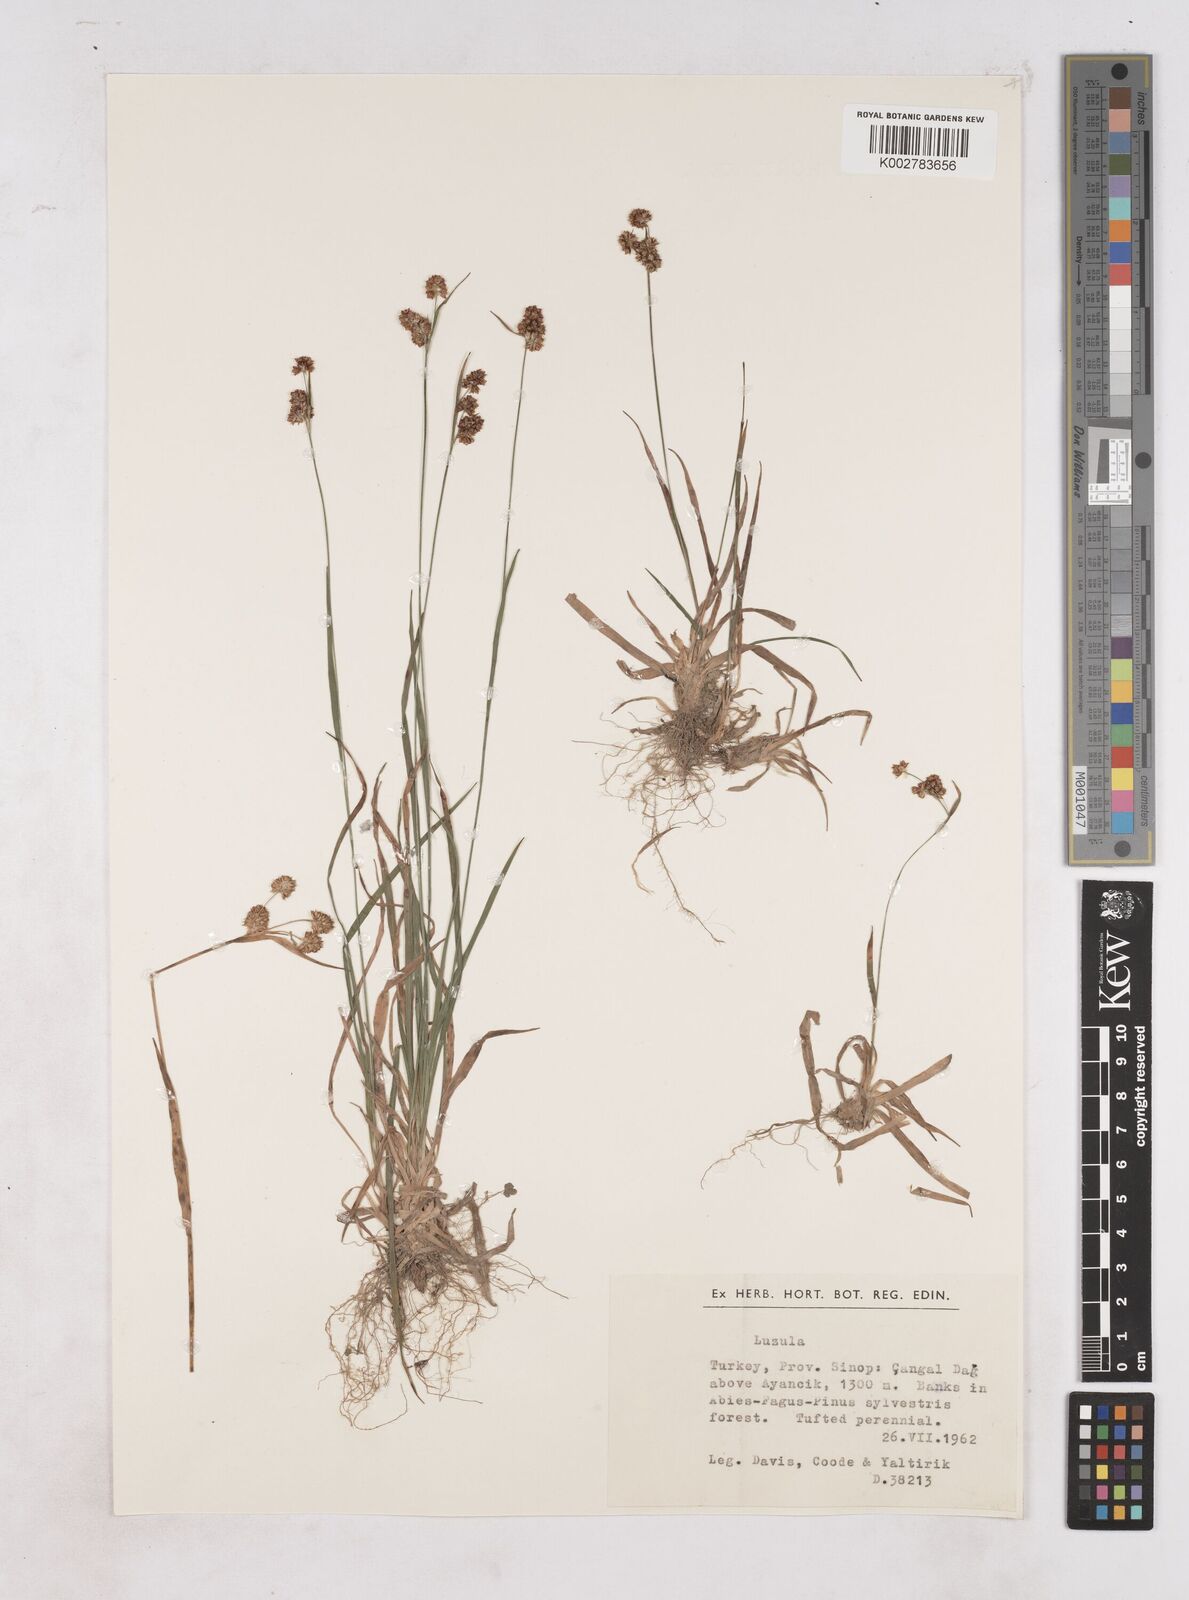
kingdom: Plantae
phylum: Tracheophyta
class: Liliopsida
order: Poales
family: Juncaceae
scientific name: Juncaceae
